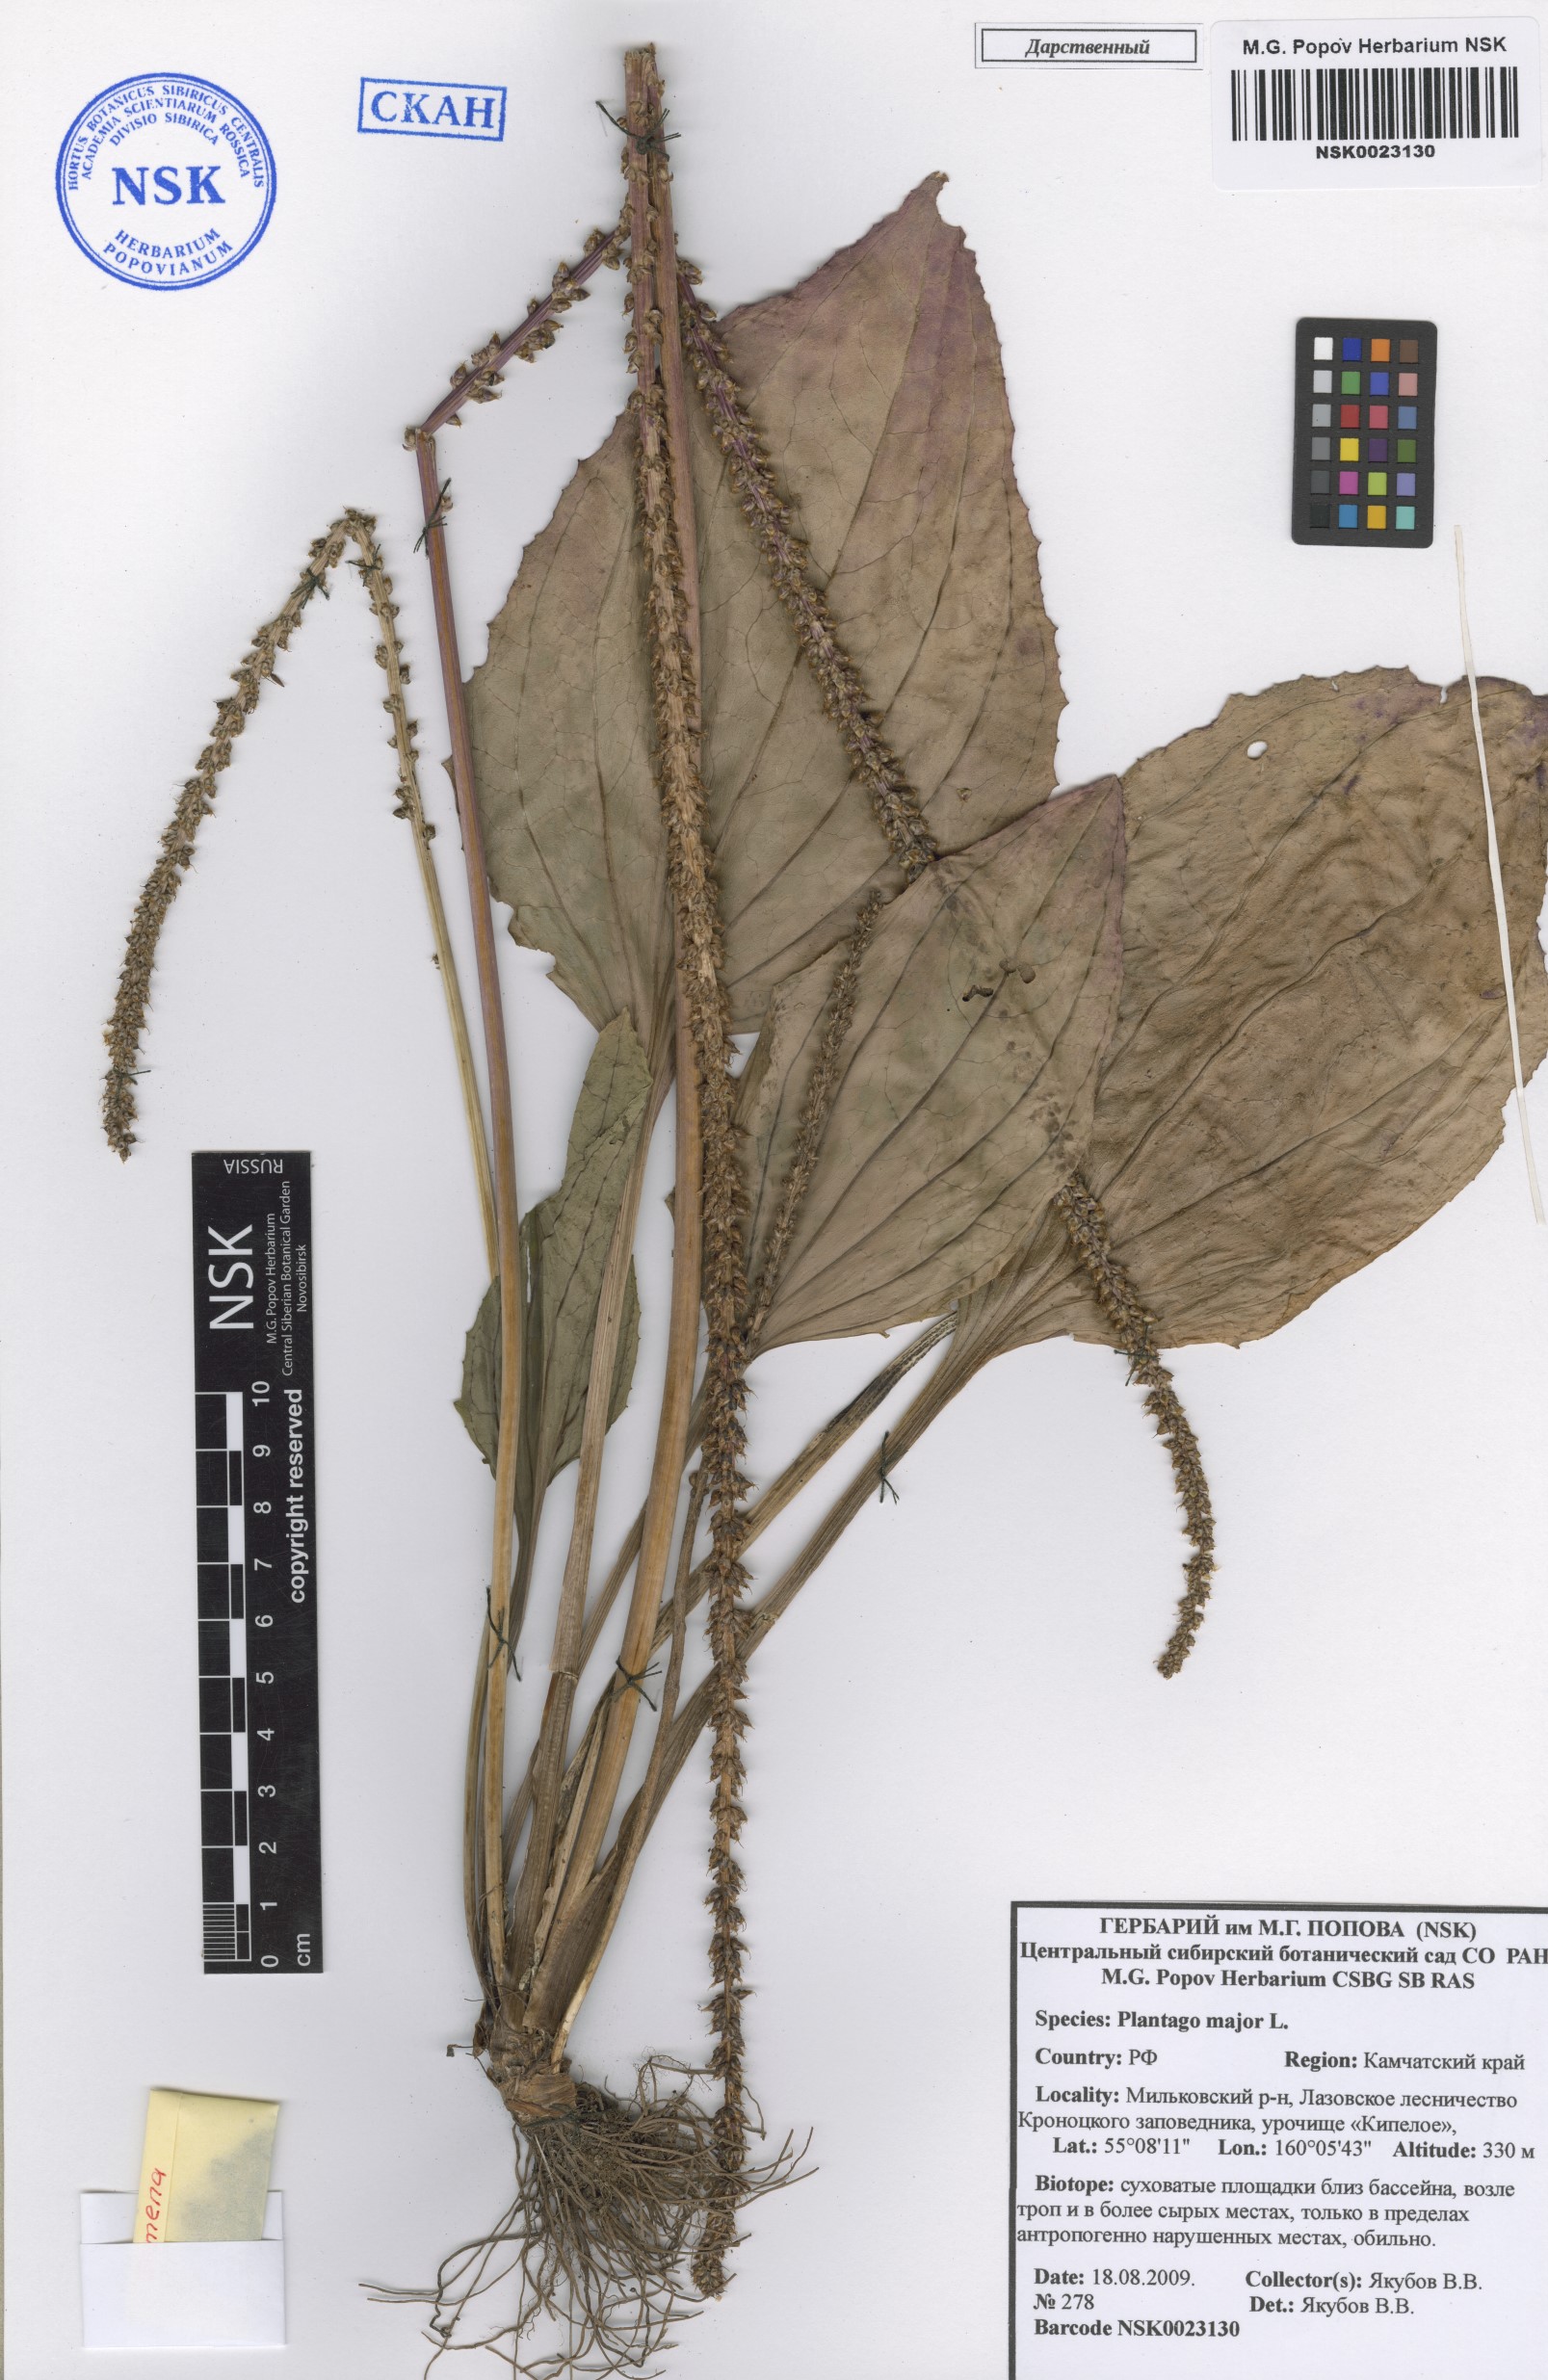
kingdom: Plantae
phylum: Tracheophyta
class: Magnoliopsida
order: Lamiales
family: Plantaginaceae
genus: Plantago
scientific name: Plantago major
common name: Common plantain
